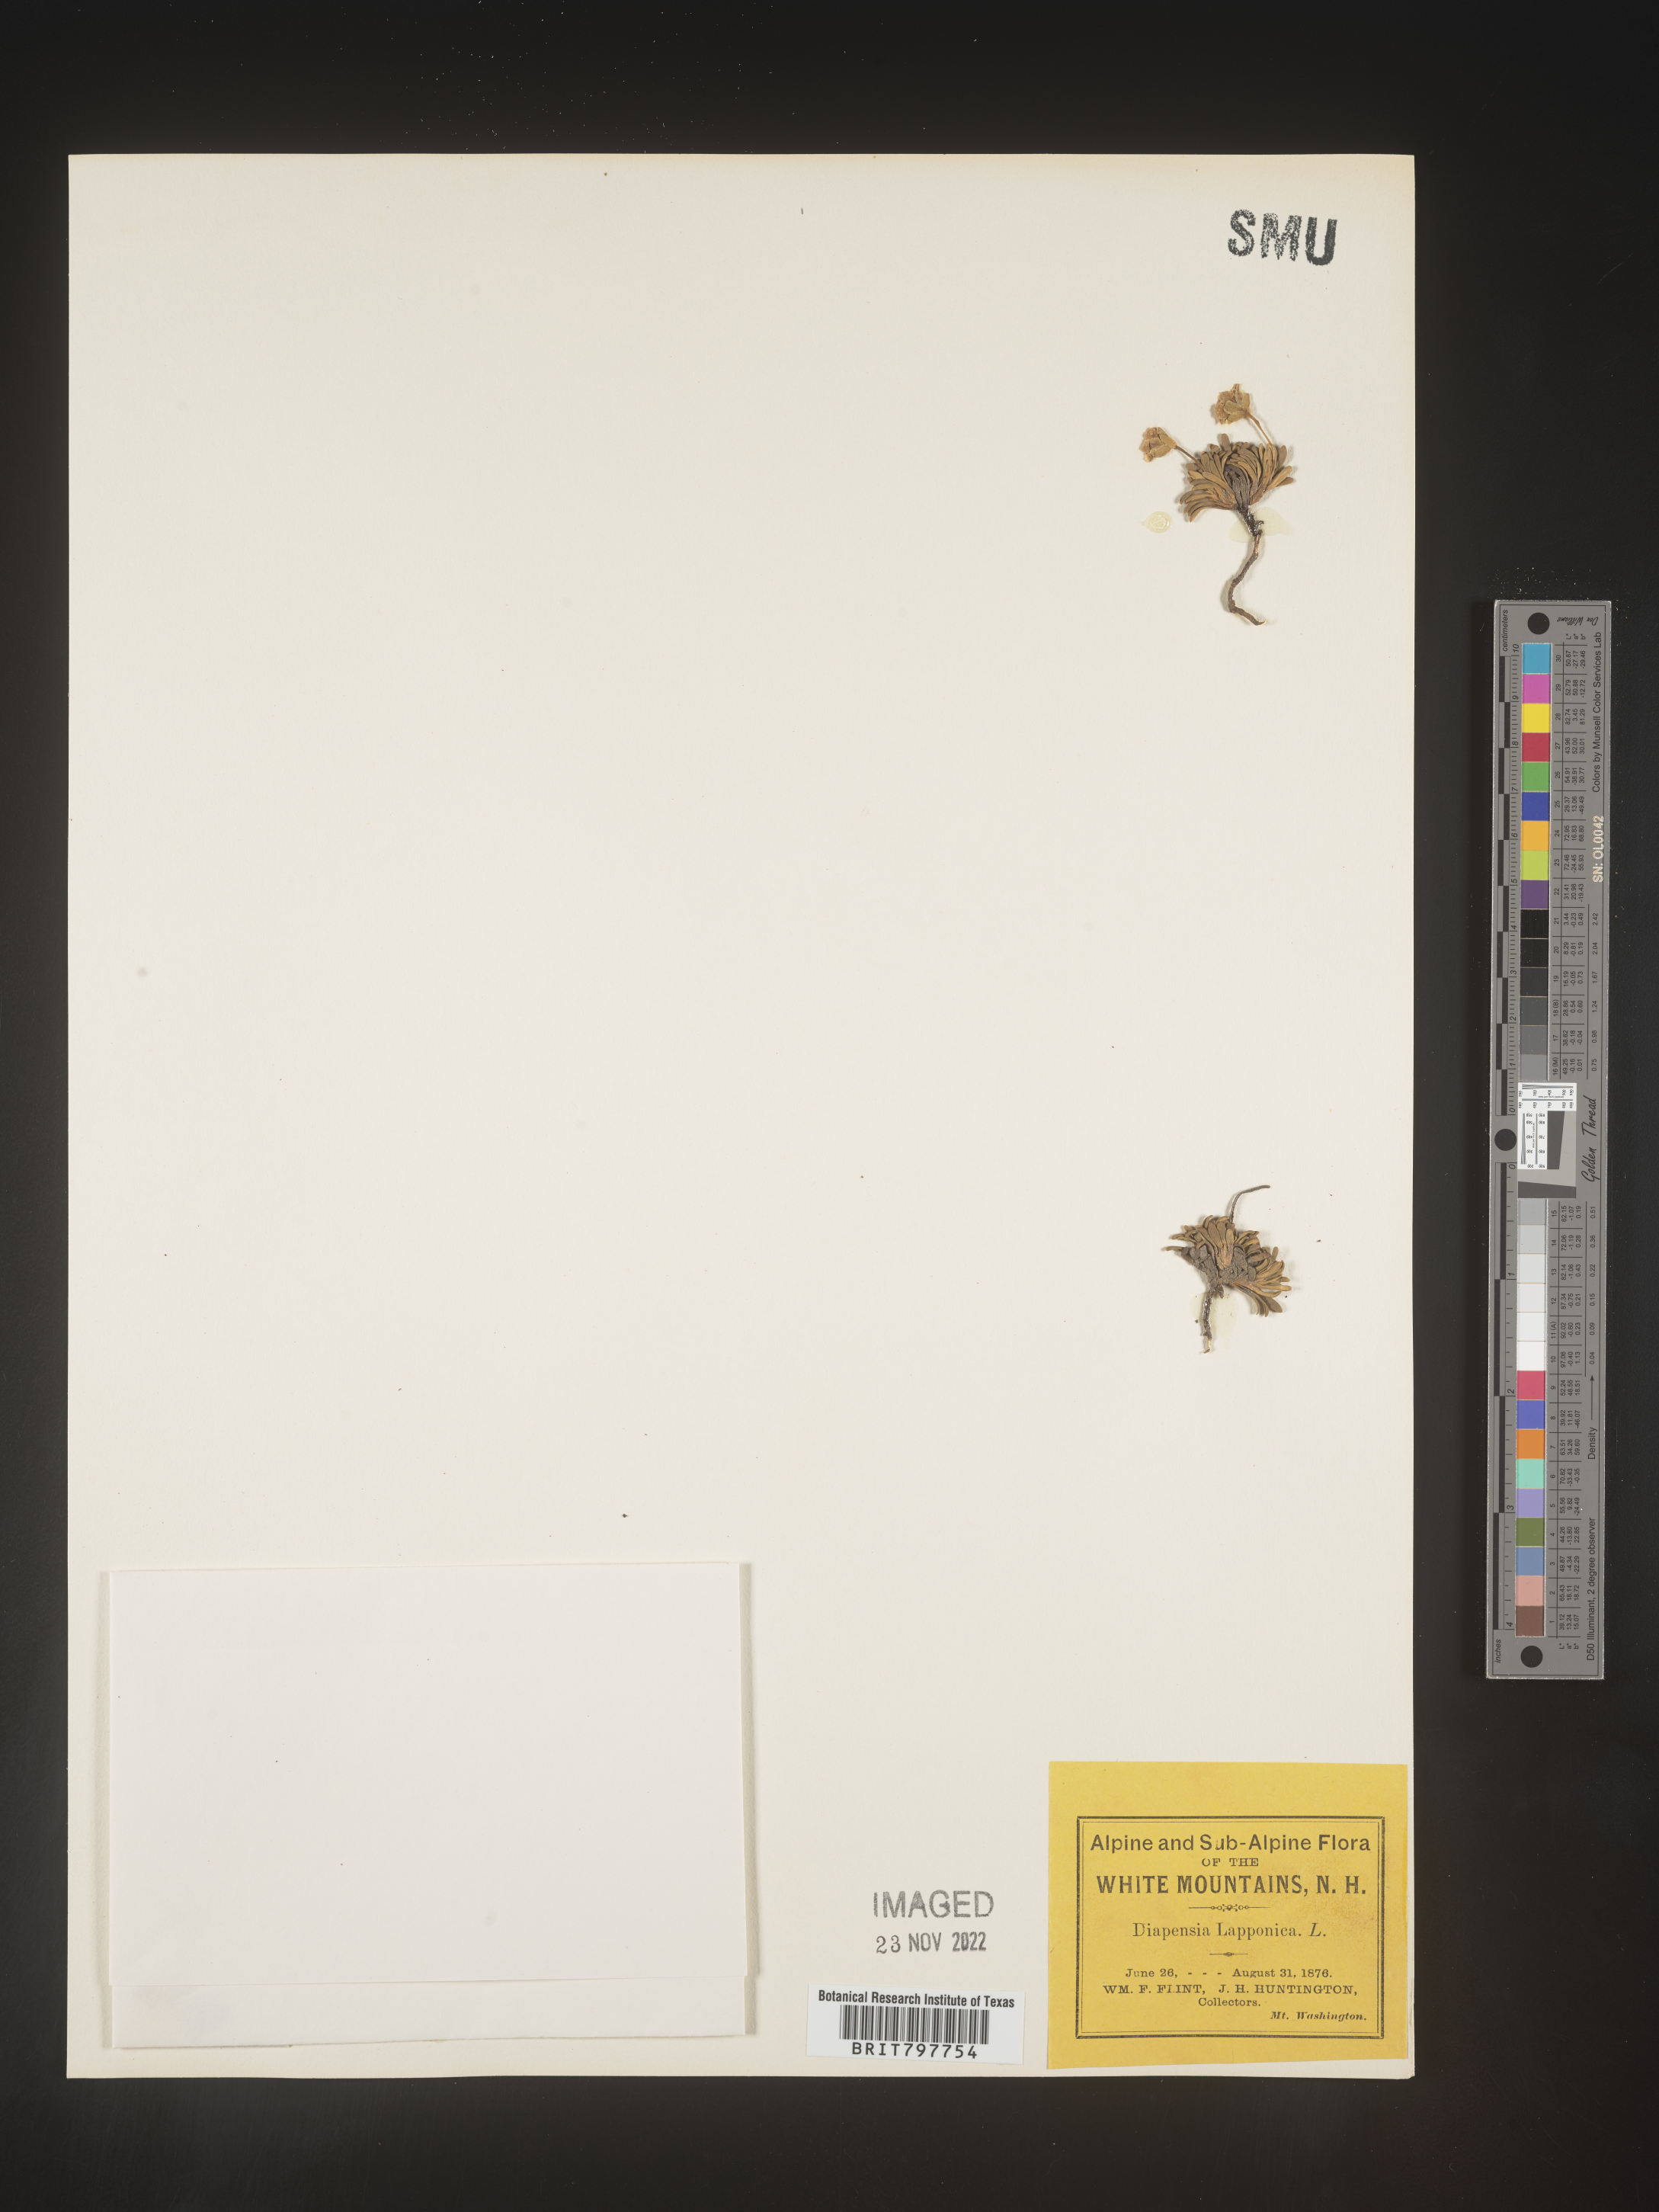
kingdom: Plantae
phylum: Tracheophyta
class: Magnoliopsida
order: Ericales
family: Diapensiaceae
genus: Diapensia
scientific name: Diapensia
